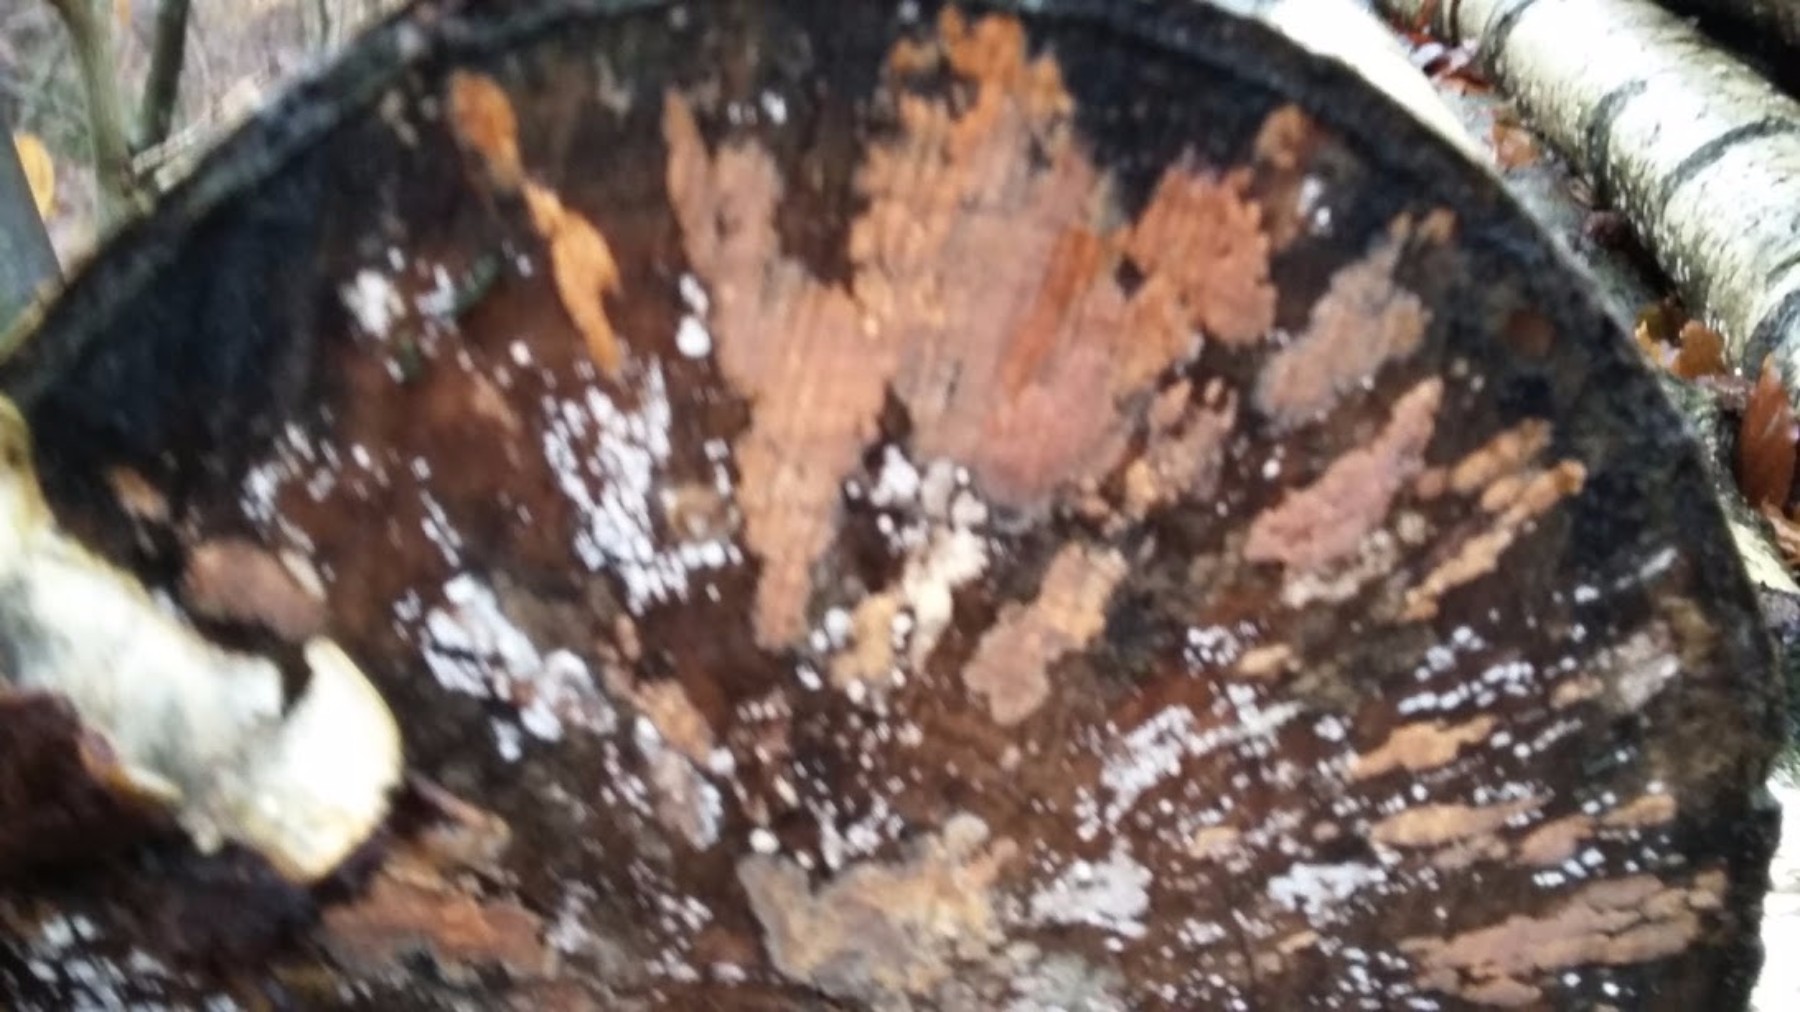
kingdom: Fungi
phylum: Basidiomycota
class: Agaricomycetes
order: Russulales
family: Peniophoraceae
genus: Peniophora
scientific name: Peniophora incarnata
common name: laksefarvet voksskind
